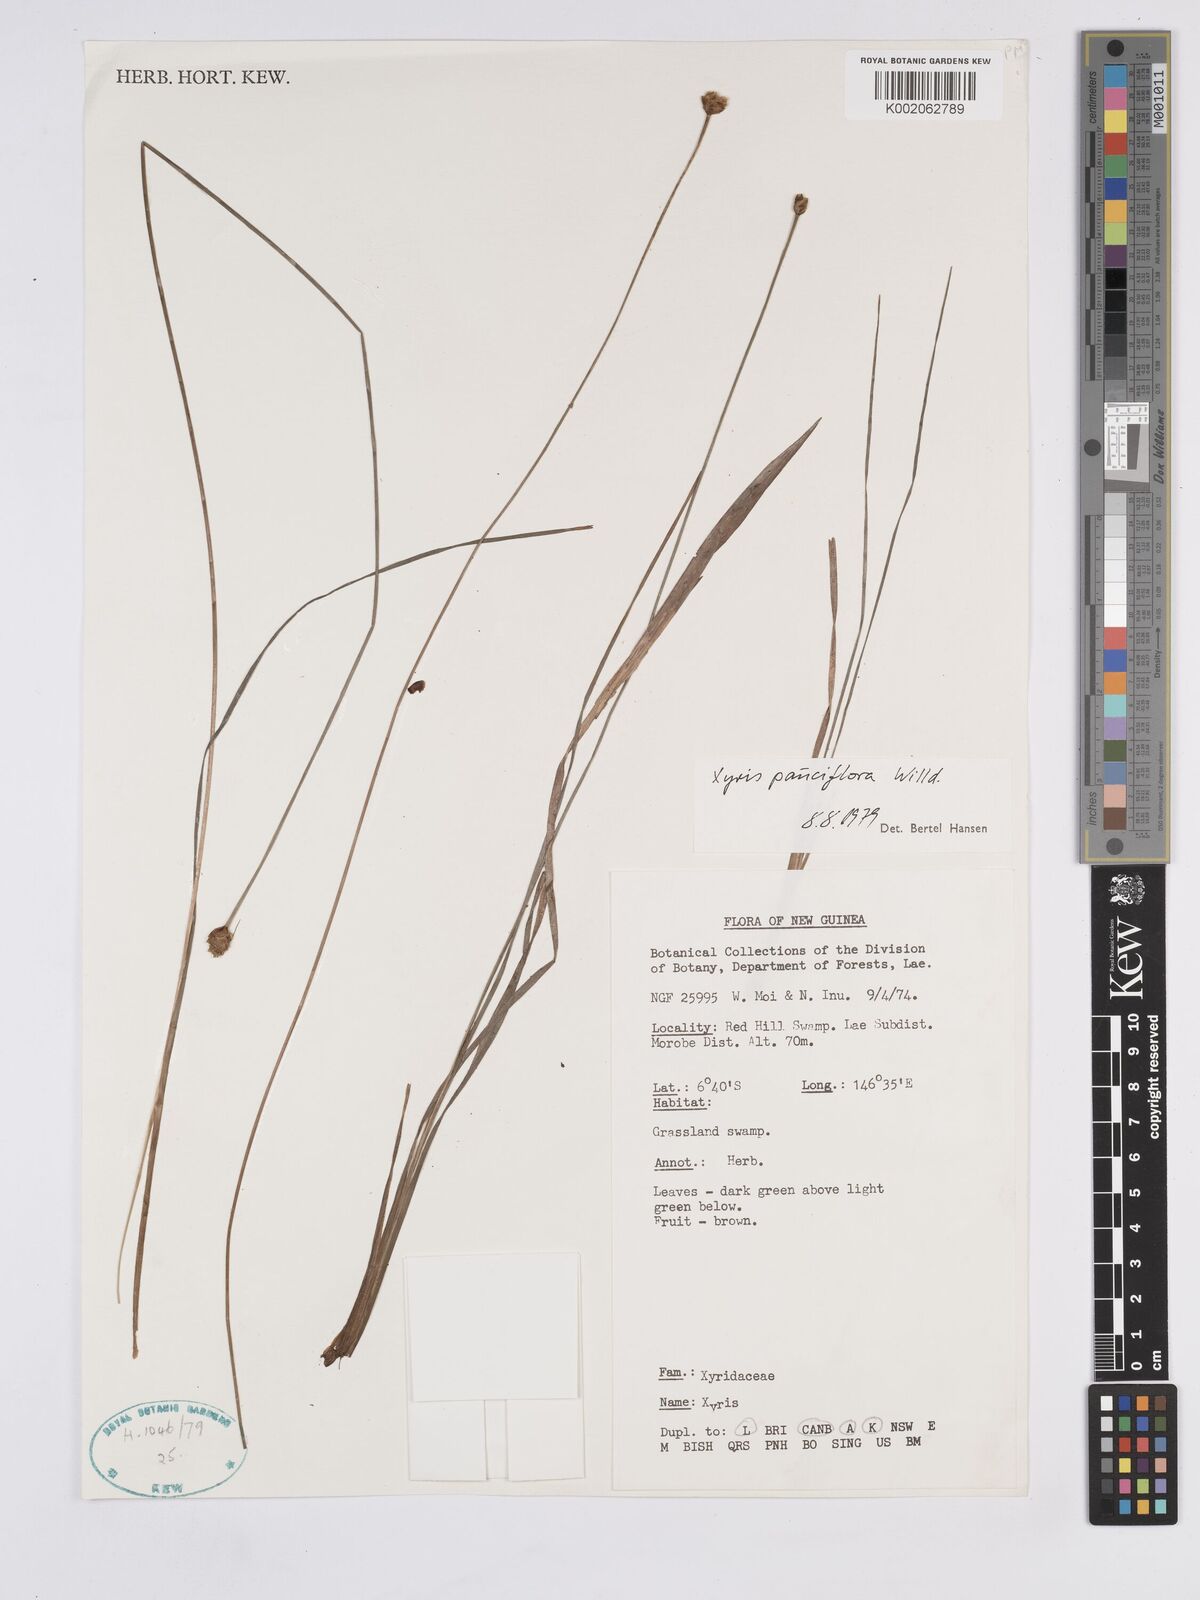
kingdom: Plantae
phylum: Tracheophyta
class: Liliopsida
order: Poales
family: Xyridaceae
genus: Xyris
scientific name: Xyris pauciflora
